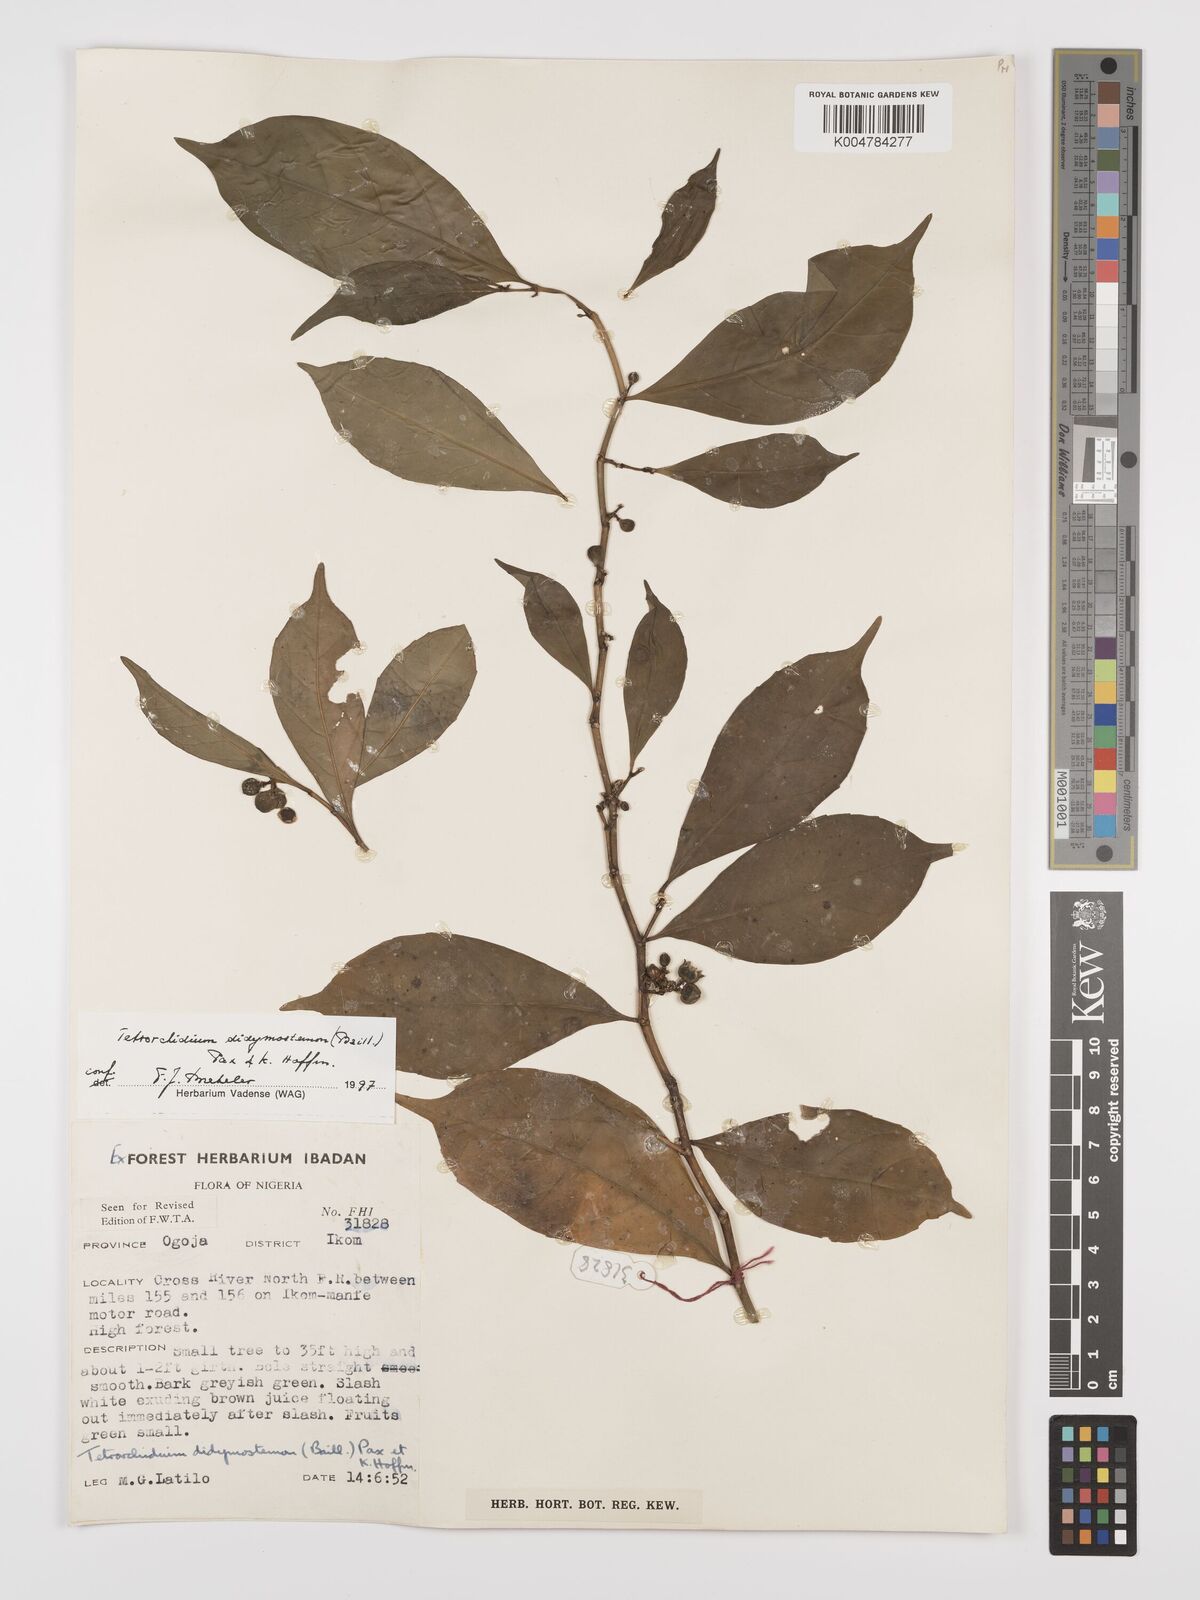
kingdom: Plantae
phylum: Tracheophyta
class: Magnoliopsida
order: Malpighiales
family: Euphorbiaceae
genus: Tetrorchidium
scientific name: Tetrorchidium didymostemon
